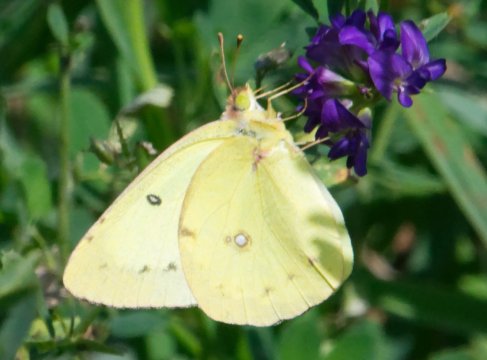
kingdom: Animalia
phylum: Arthropoda
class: Insecta
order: Lepidoptera
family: Pieridae
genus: Colias
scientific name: Colias philodice
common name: Clouded Sulphur
